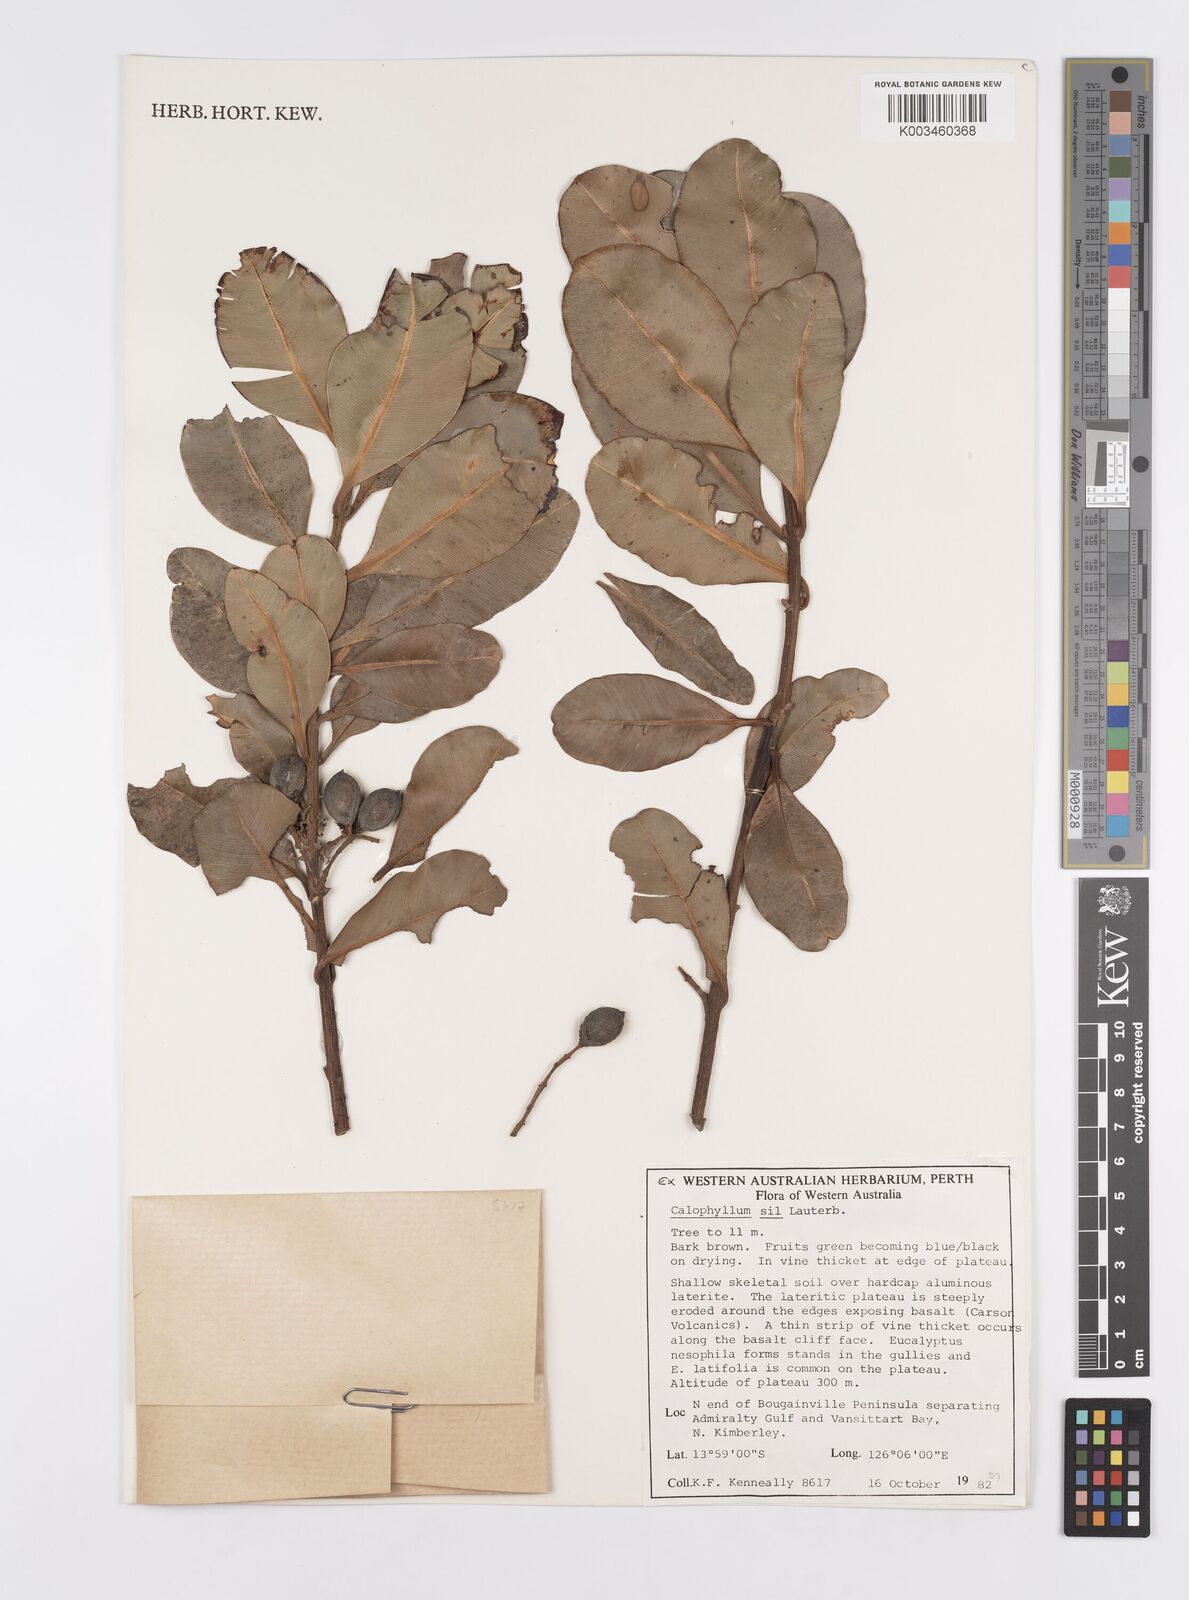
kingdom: Plantae
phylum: Tracheophyta
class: Magnoliopsida
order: Malpighiales
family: Calophyllaceae
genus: Calophyllum
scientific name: Calophyllum sil
